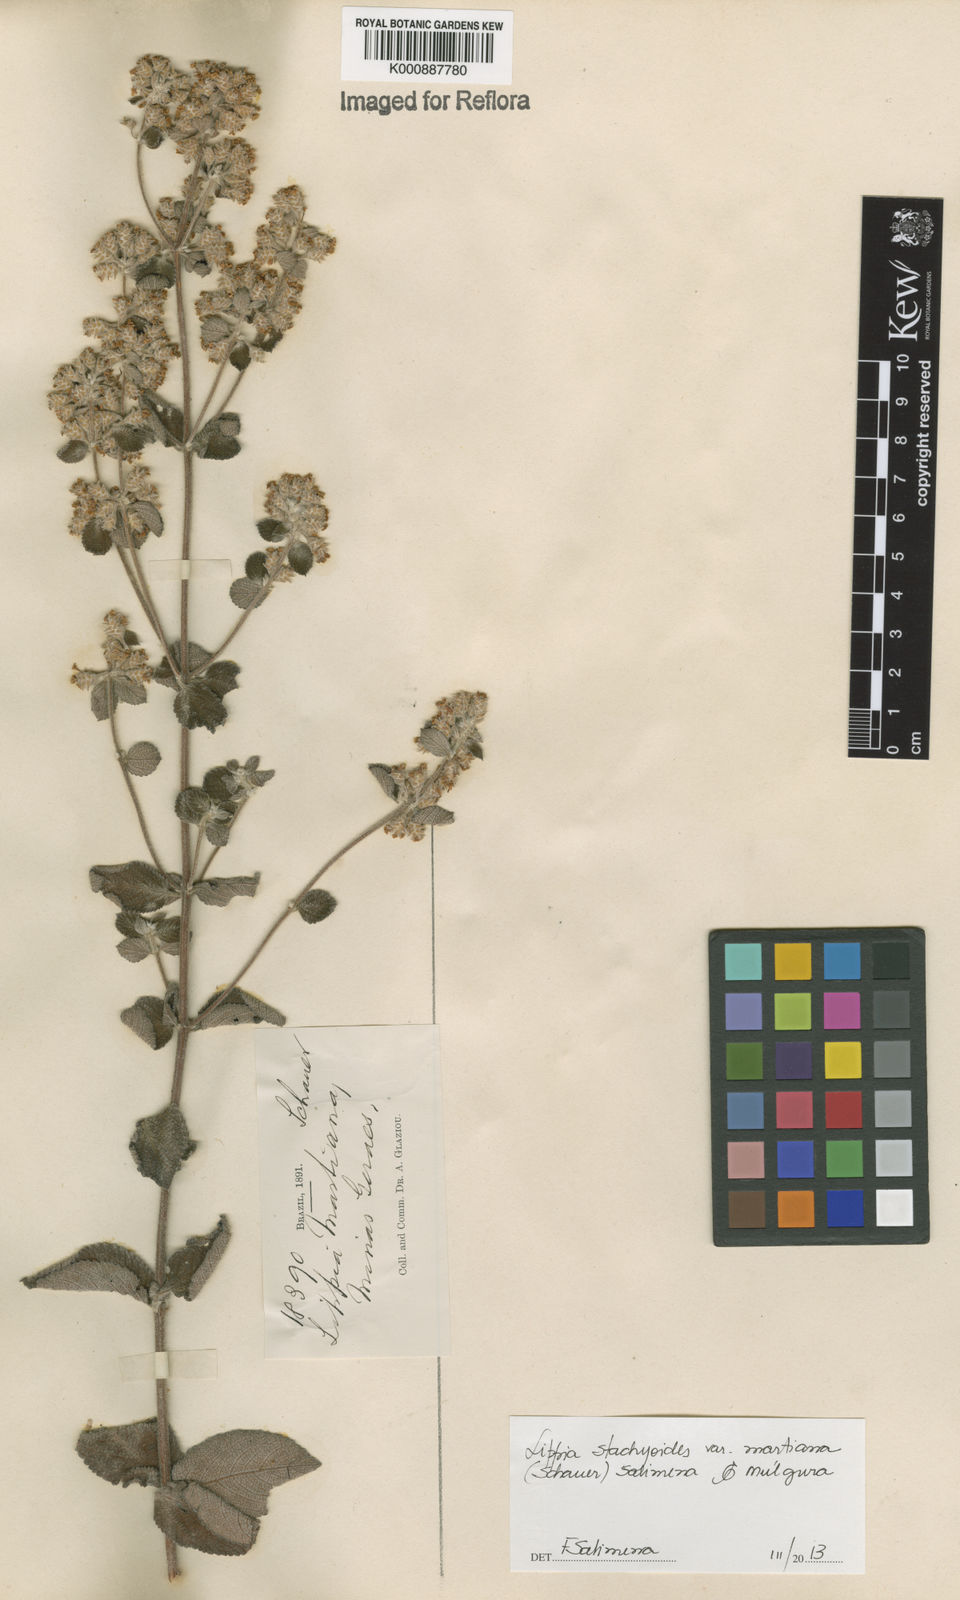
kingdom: Plantae
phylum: Tracheophyta
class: Magnoliopsida
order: Lamiales
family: Verbenaceae
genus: Lippia
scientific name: Lippia stachyoides
